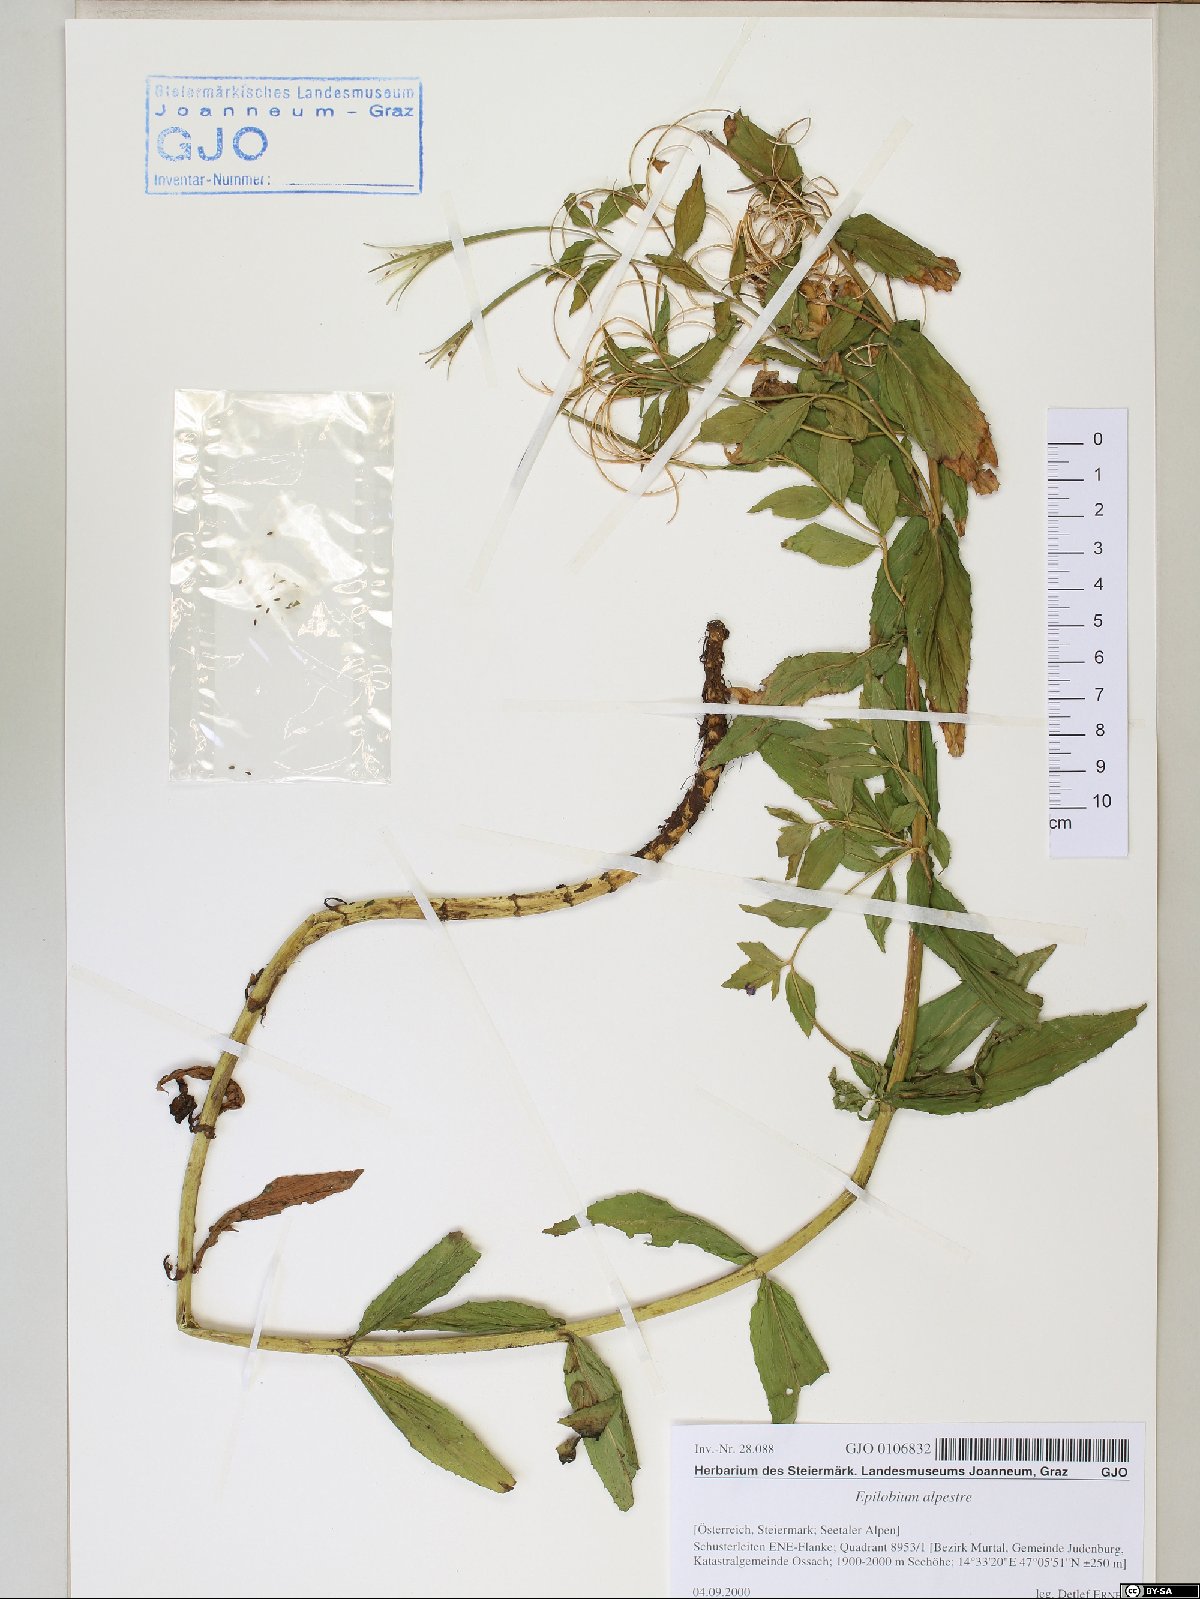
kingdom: Plantae
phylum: Tracheophyta
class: Magnoliopsida
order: Myrtales
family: Onagraceae
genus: Epilobium
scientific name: Epilobium alpestre
